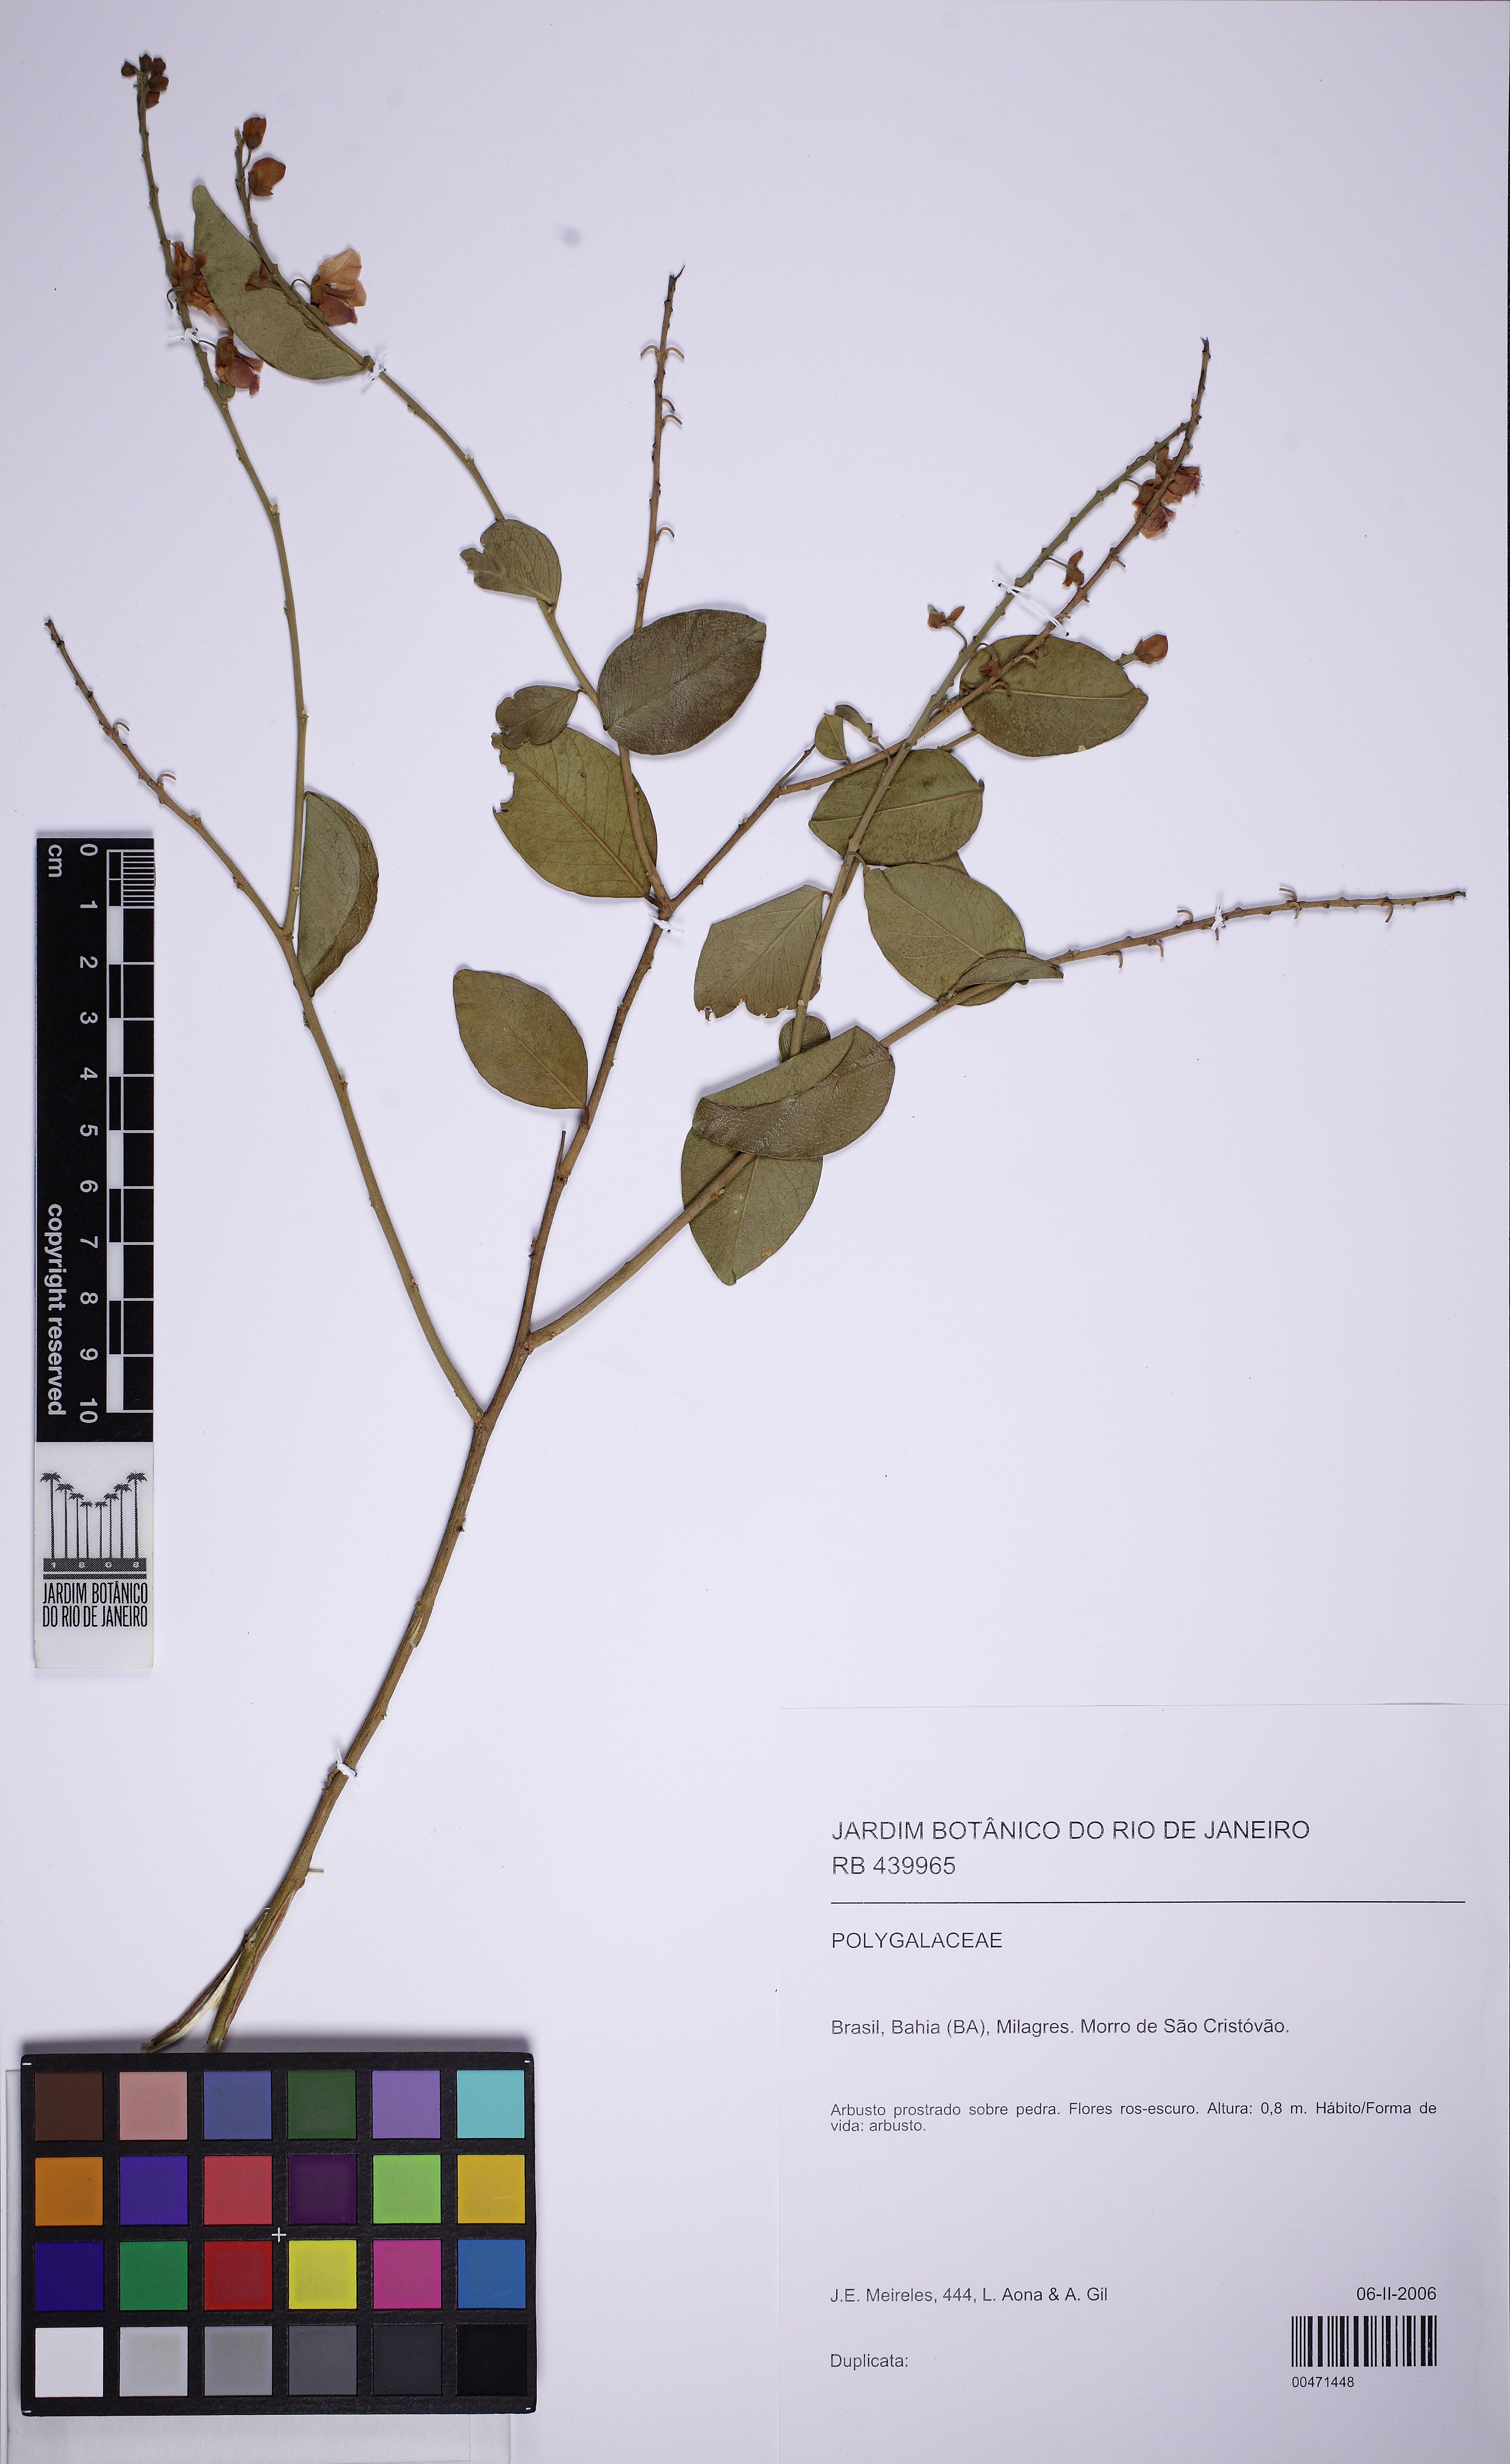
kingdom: Plantae
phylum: Tracheophyta
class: Magnoliopsida
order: Fabales
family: Polygalaceae
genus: Securidaca
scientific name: Securidaca
